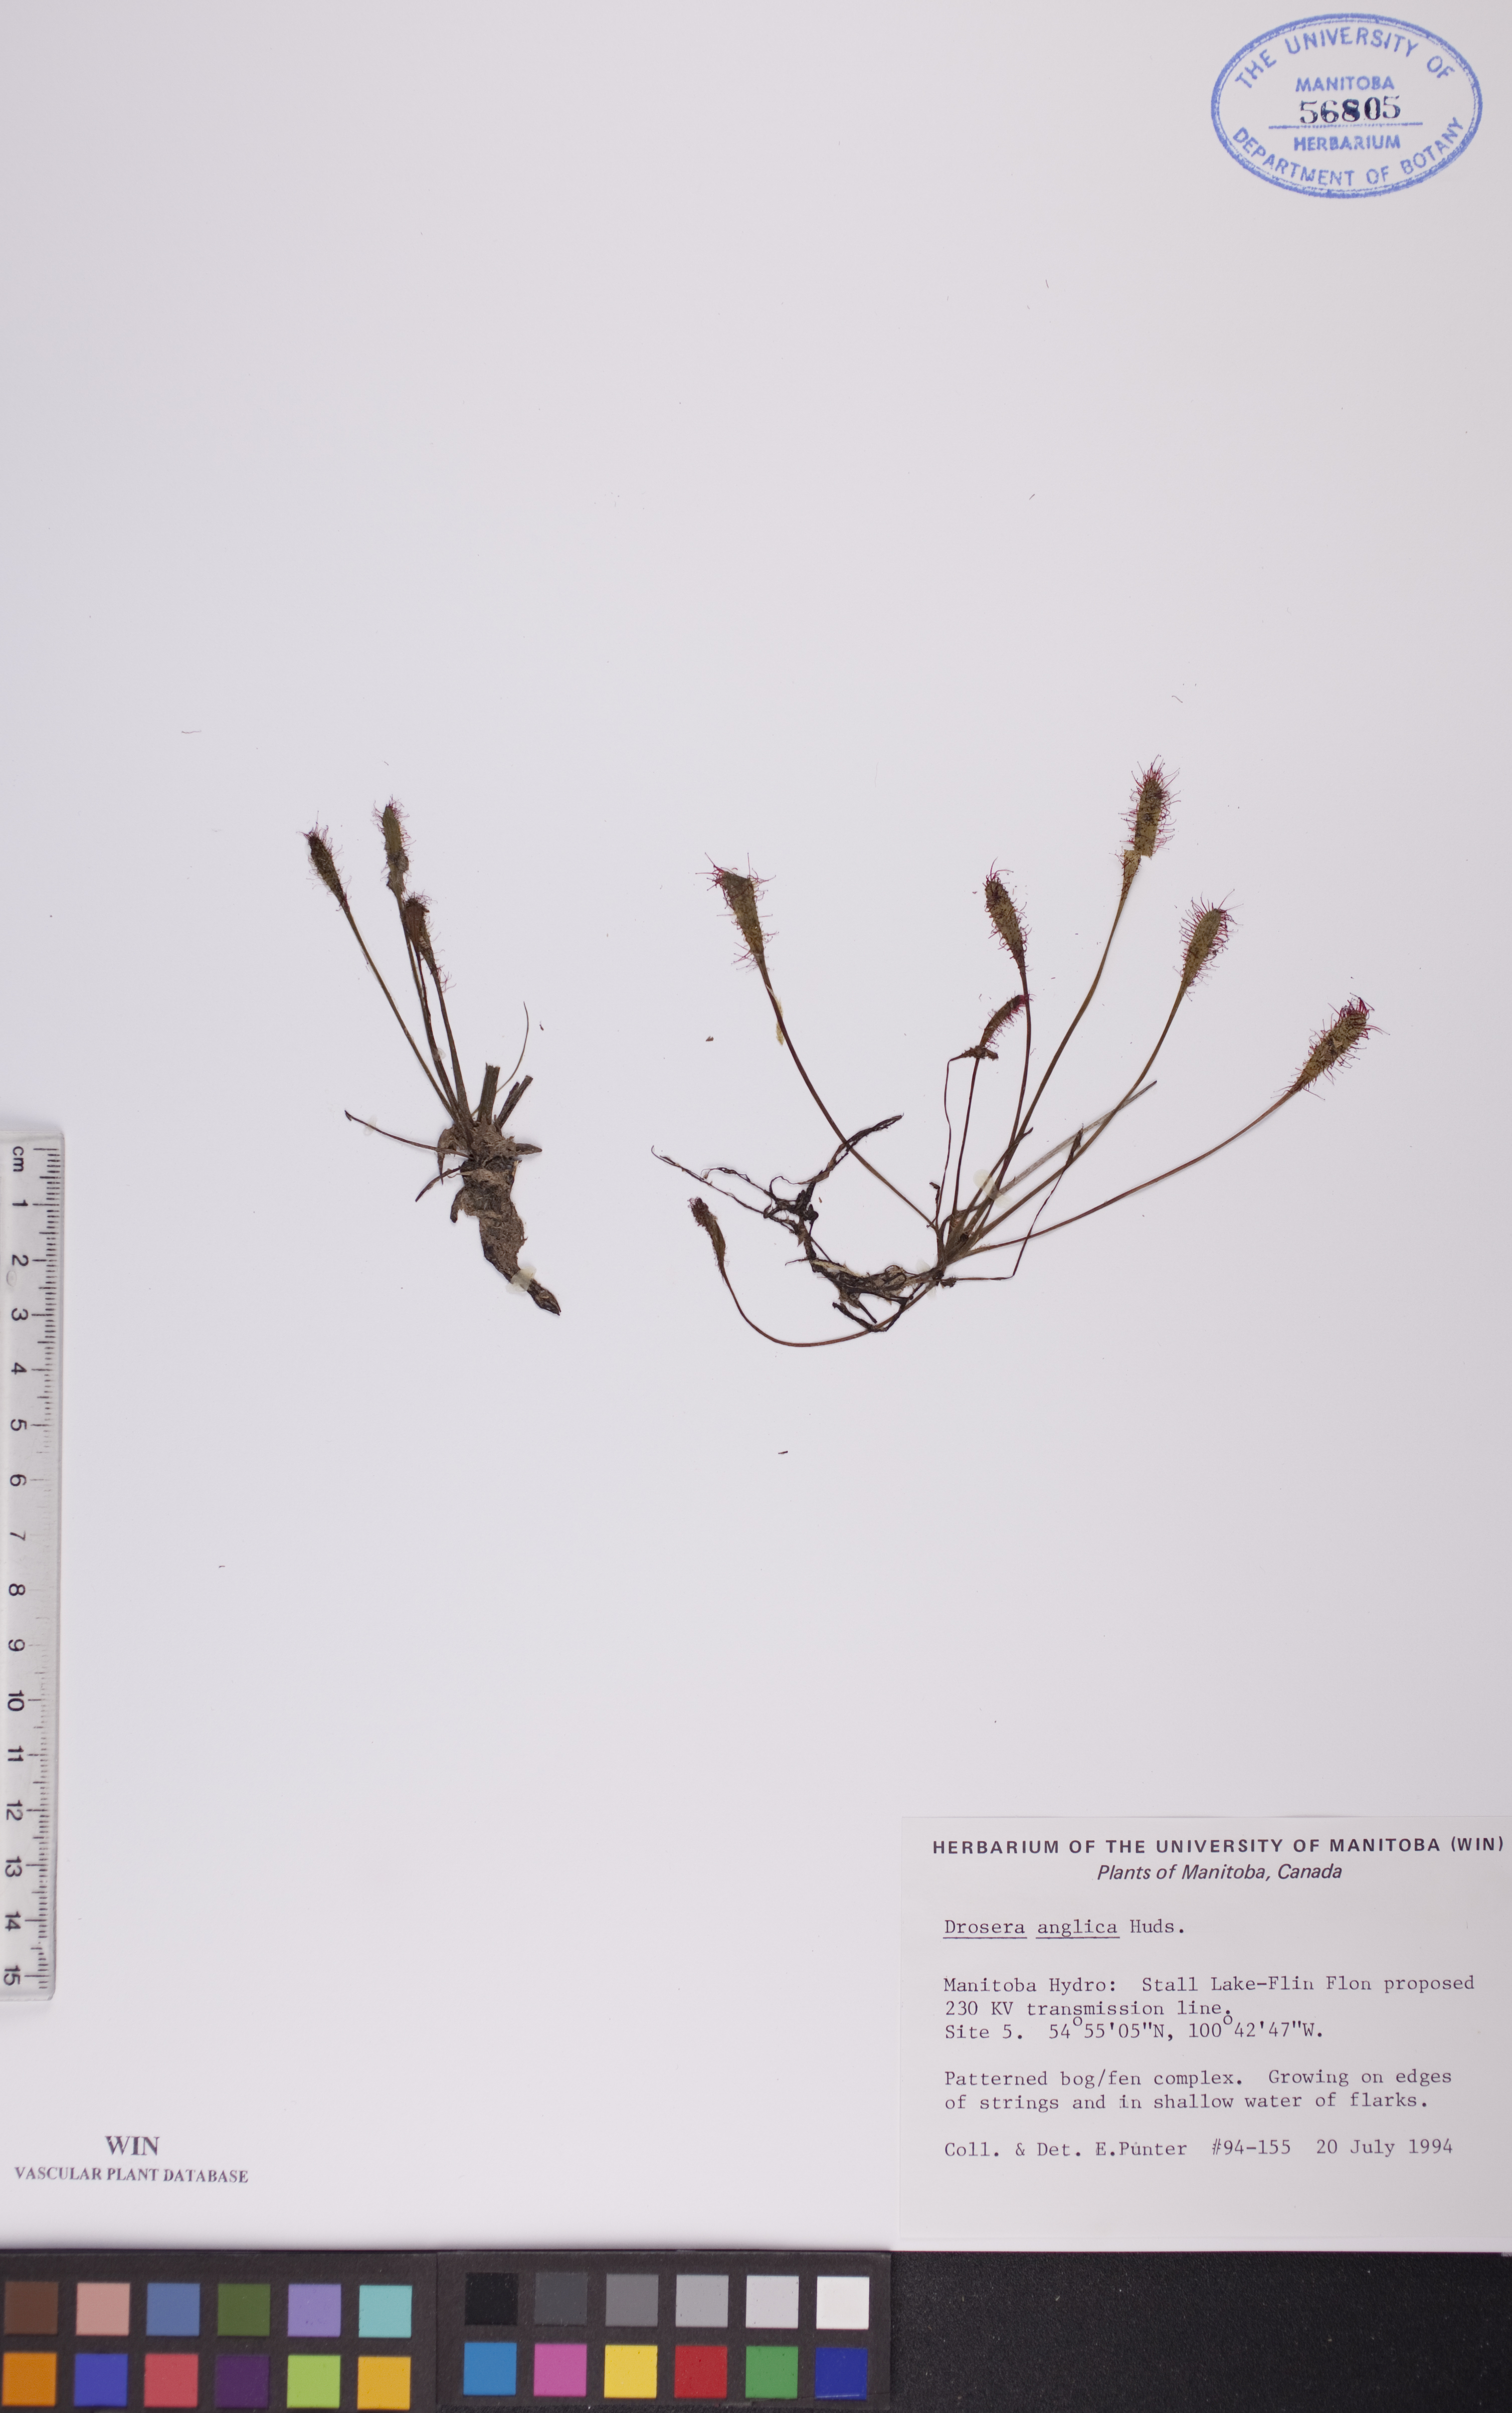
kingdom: Plantae
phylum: Tracheophyta
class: Magnoliopsida
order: Caryophyllales
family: Droseraceae
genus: Drosera
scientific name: Drosera anglica
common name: Great sundew
